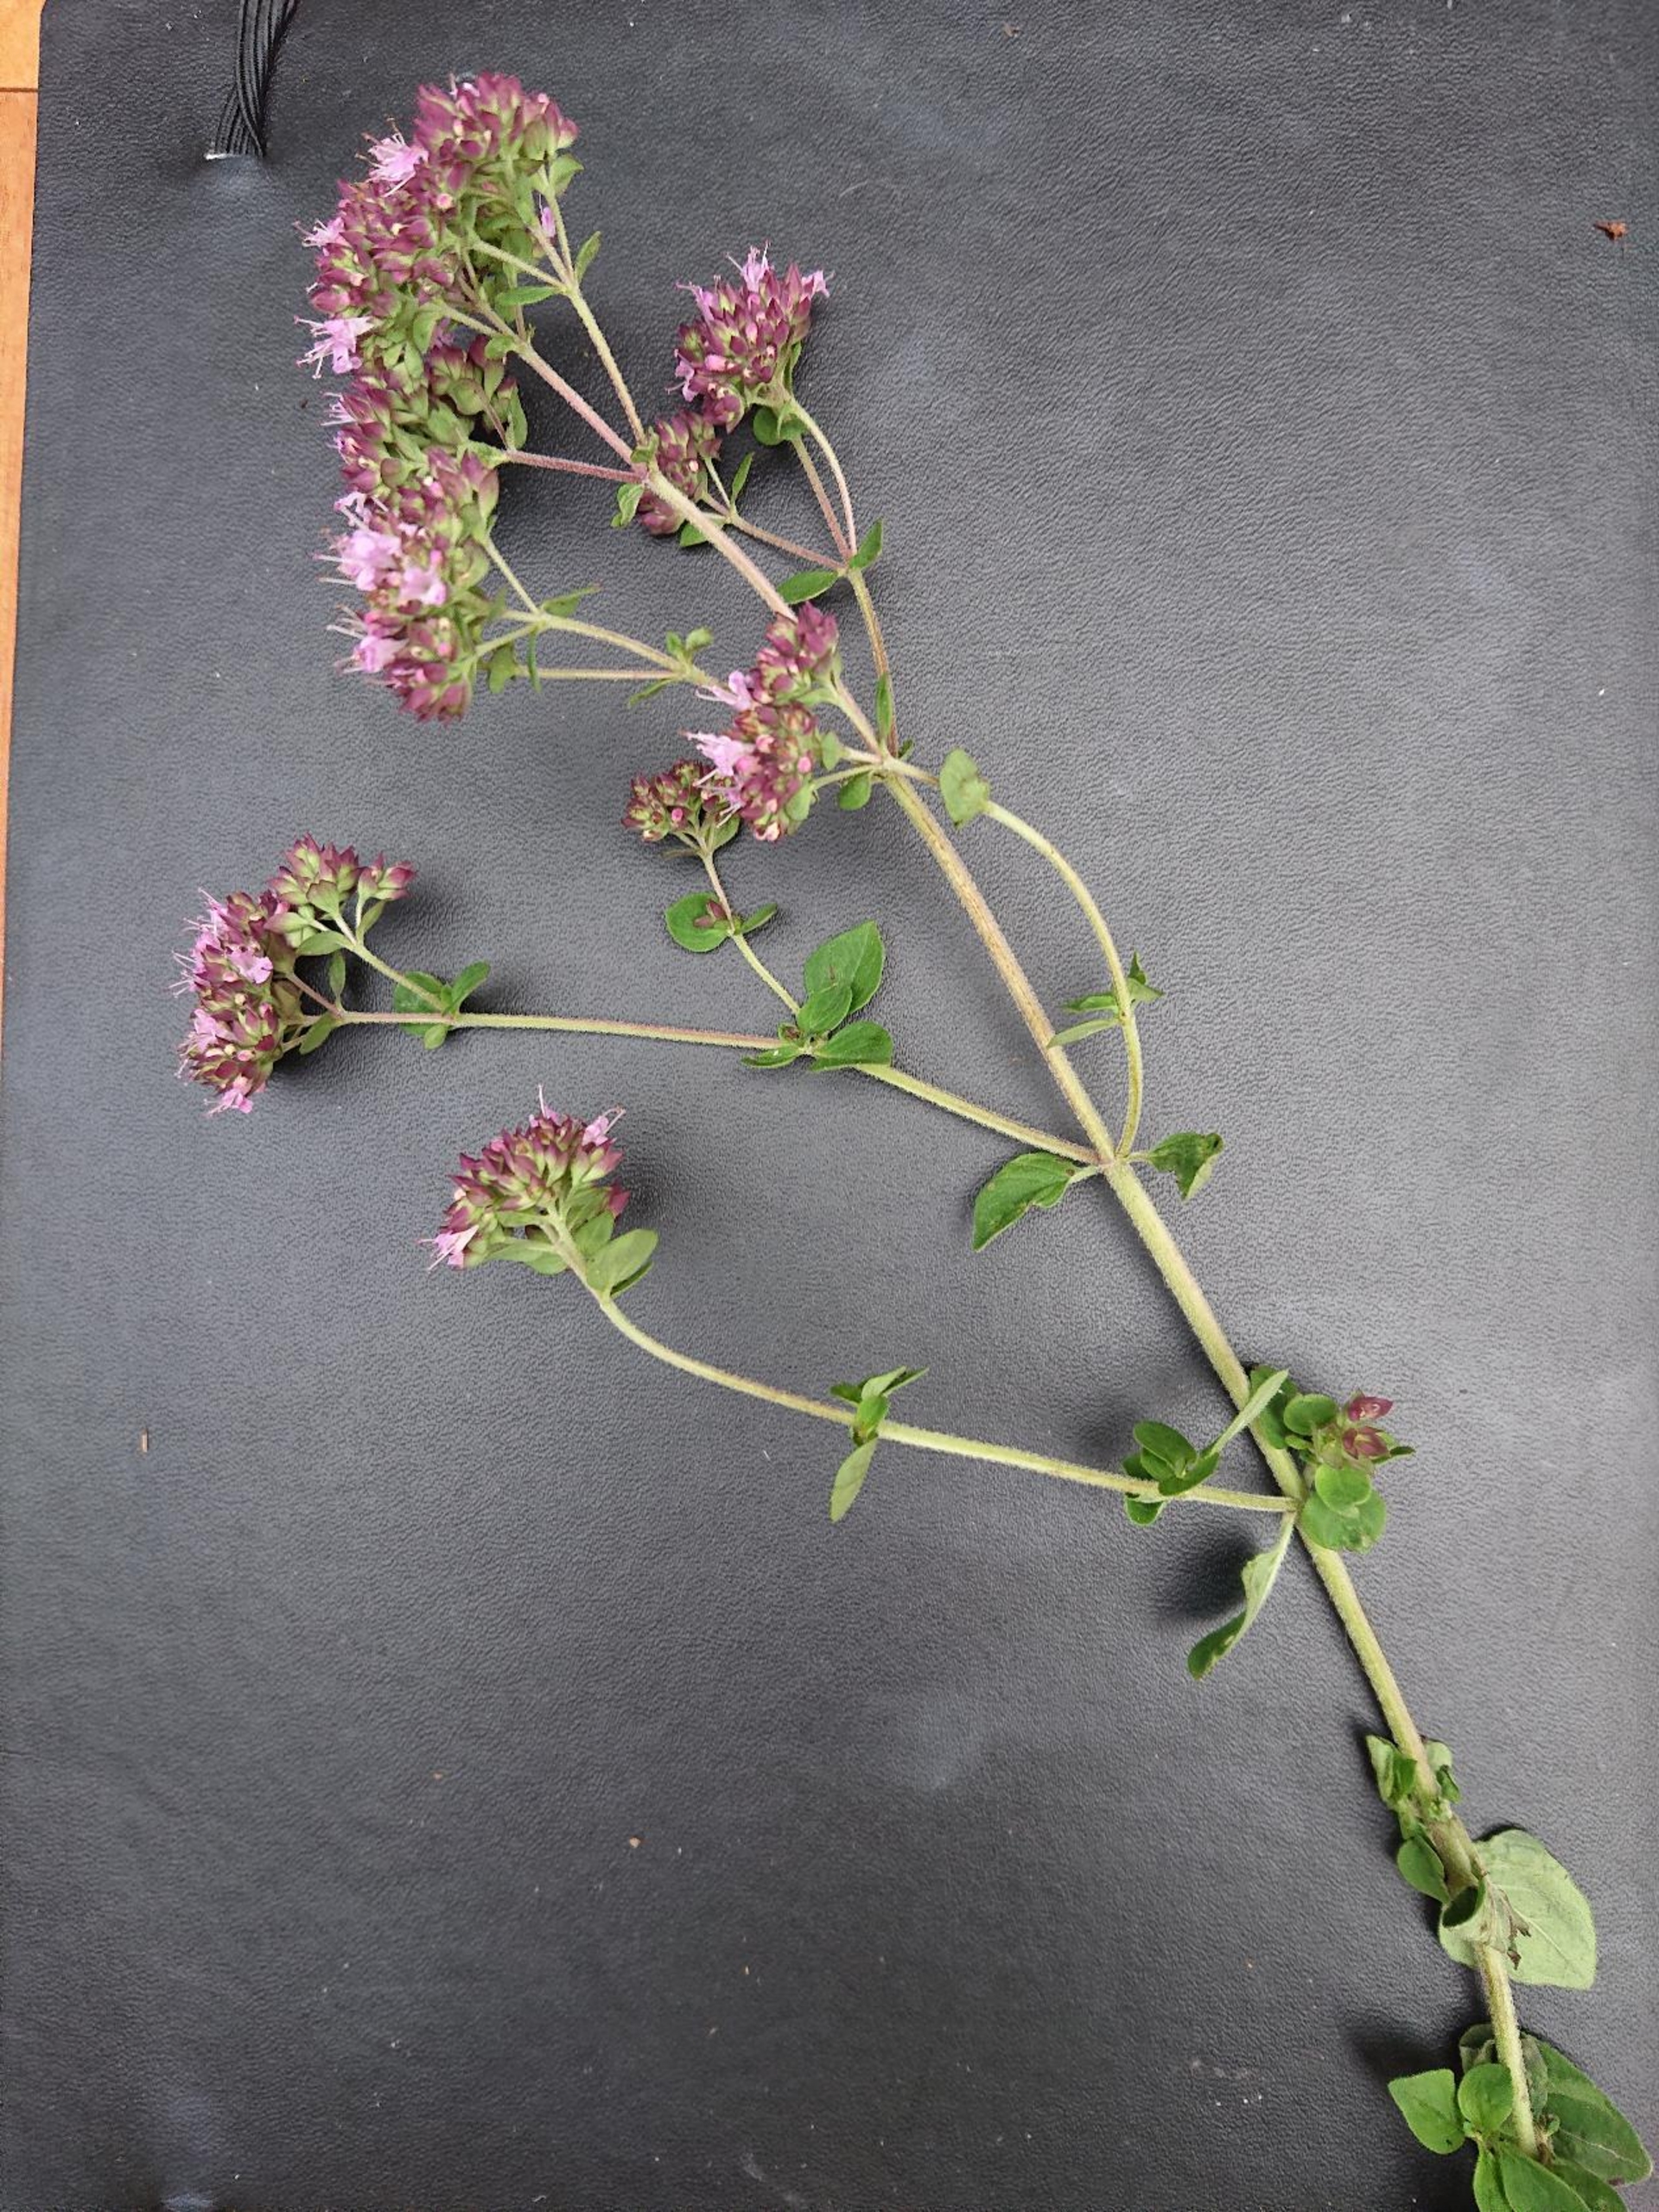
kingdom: Plantae
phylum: Tracheophyta
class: Magnoliopsida
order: Lamiales
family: Lamiaceae
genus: Origanum
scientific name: Origanum vulgare
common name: Merian
